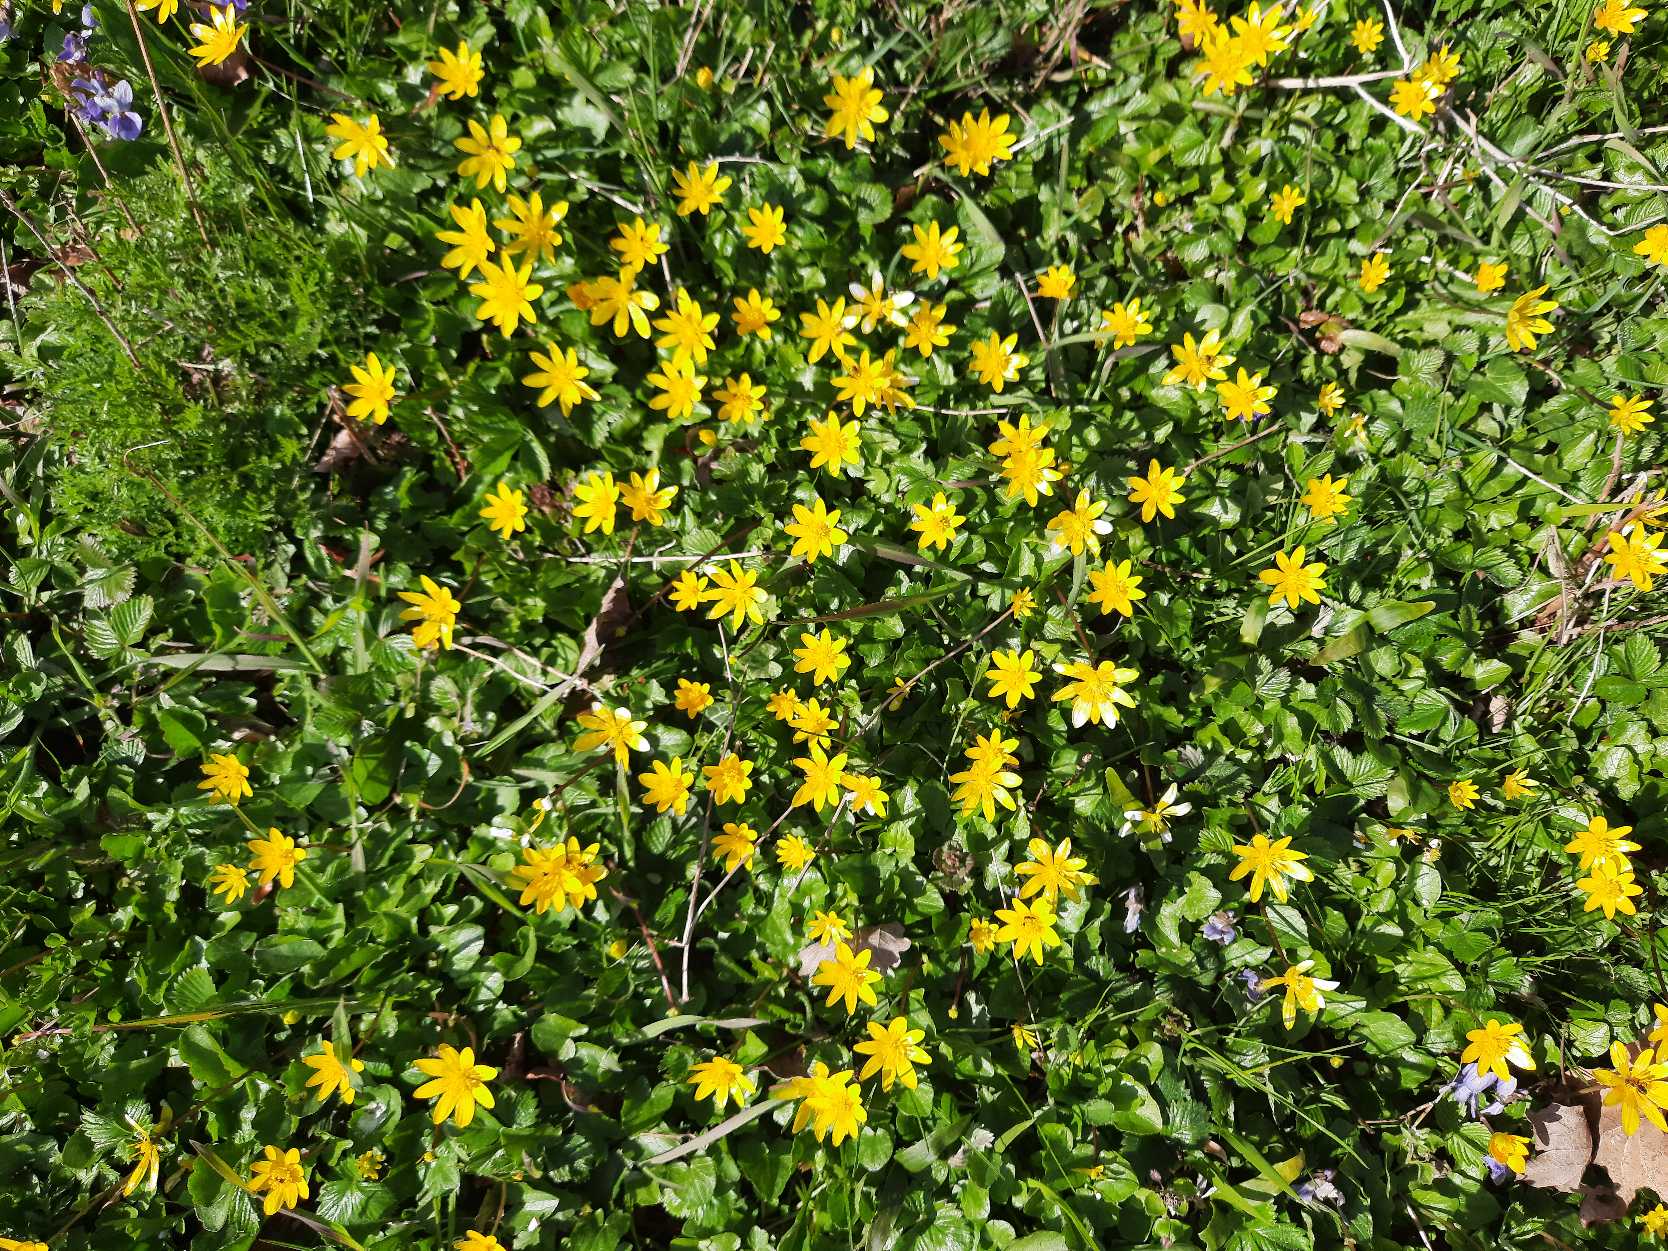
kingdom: Plantae
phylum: Tracheophyta
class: Magnoliopsida
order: Ranunculales
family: Ranunculaceae
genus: Ficaria
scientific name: Ficaria verna
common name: Vorterod
